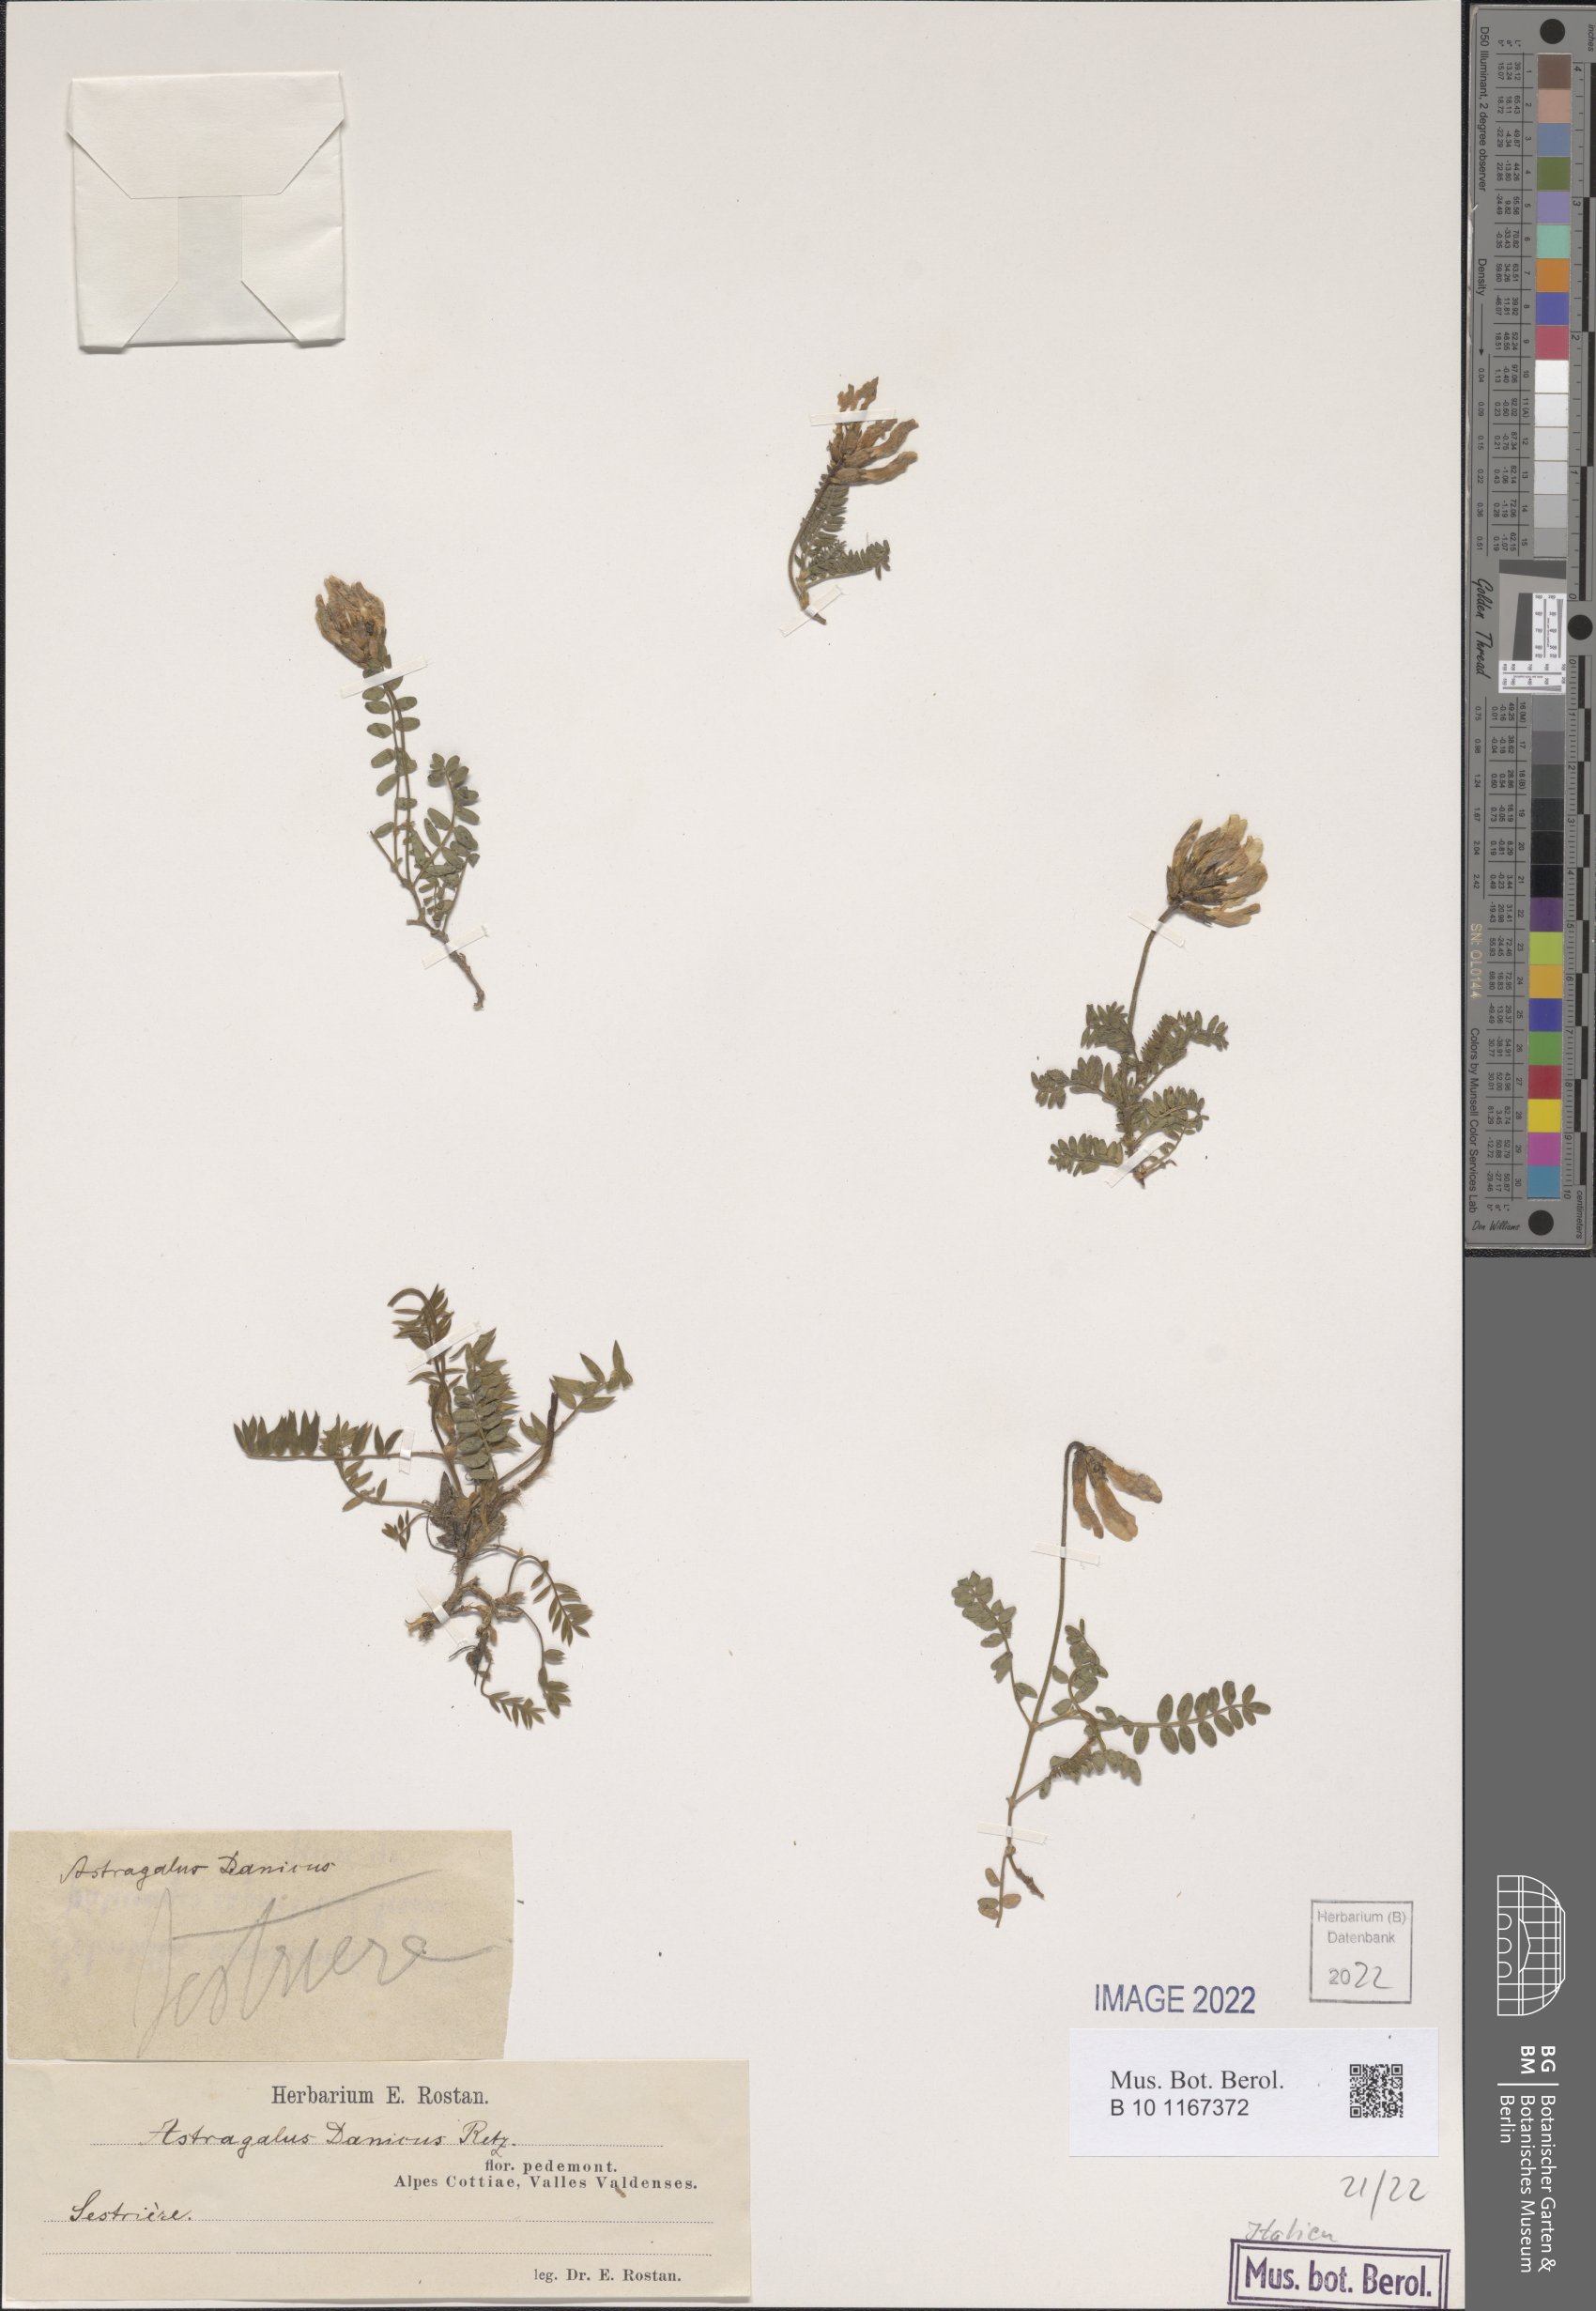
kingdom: Plantae
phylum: Tracheophyta
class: Magnoliopsida
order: Fabales
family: Fabaceae
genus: Astragalus
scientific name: Astragalus danicus
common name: Purple milk-vetch
